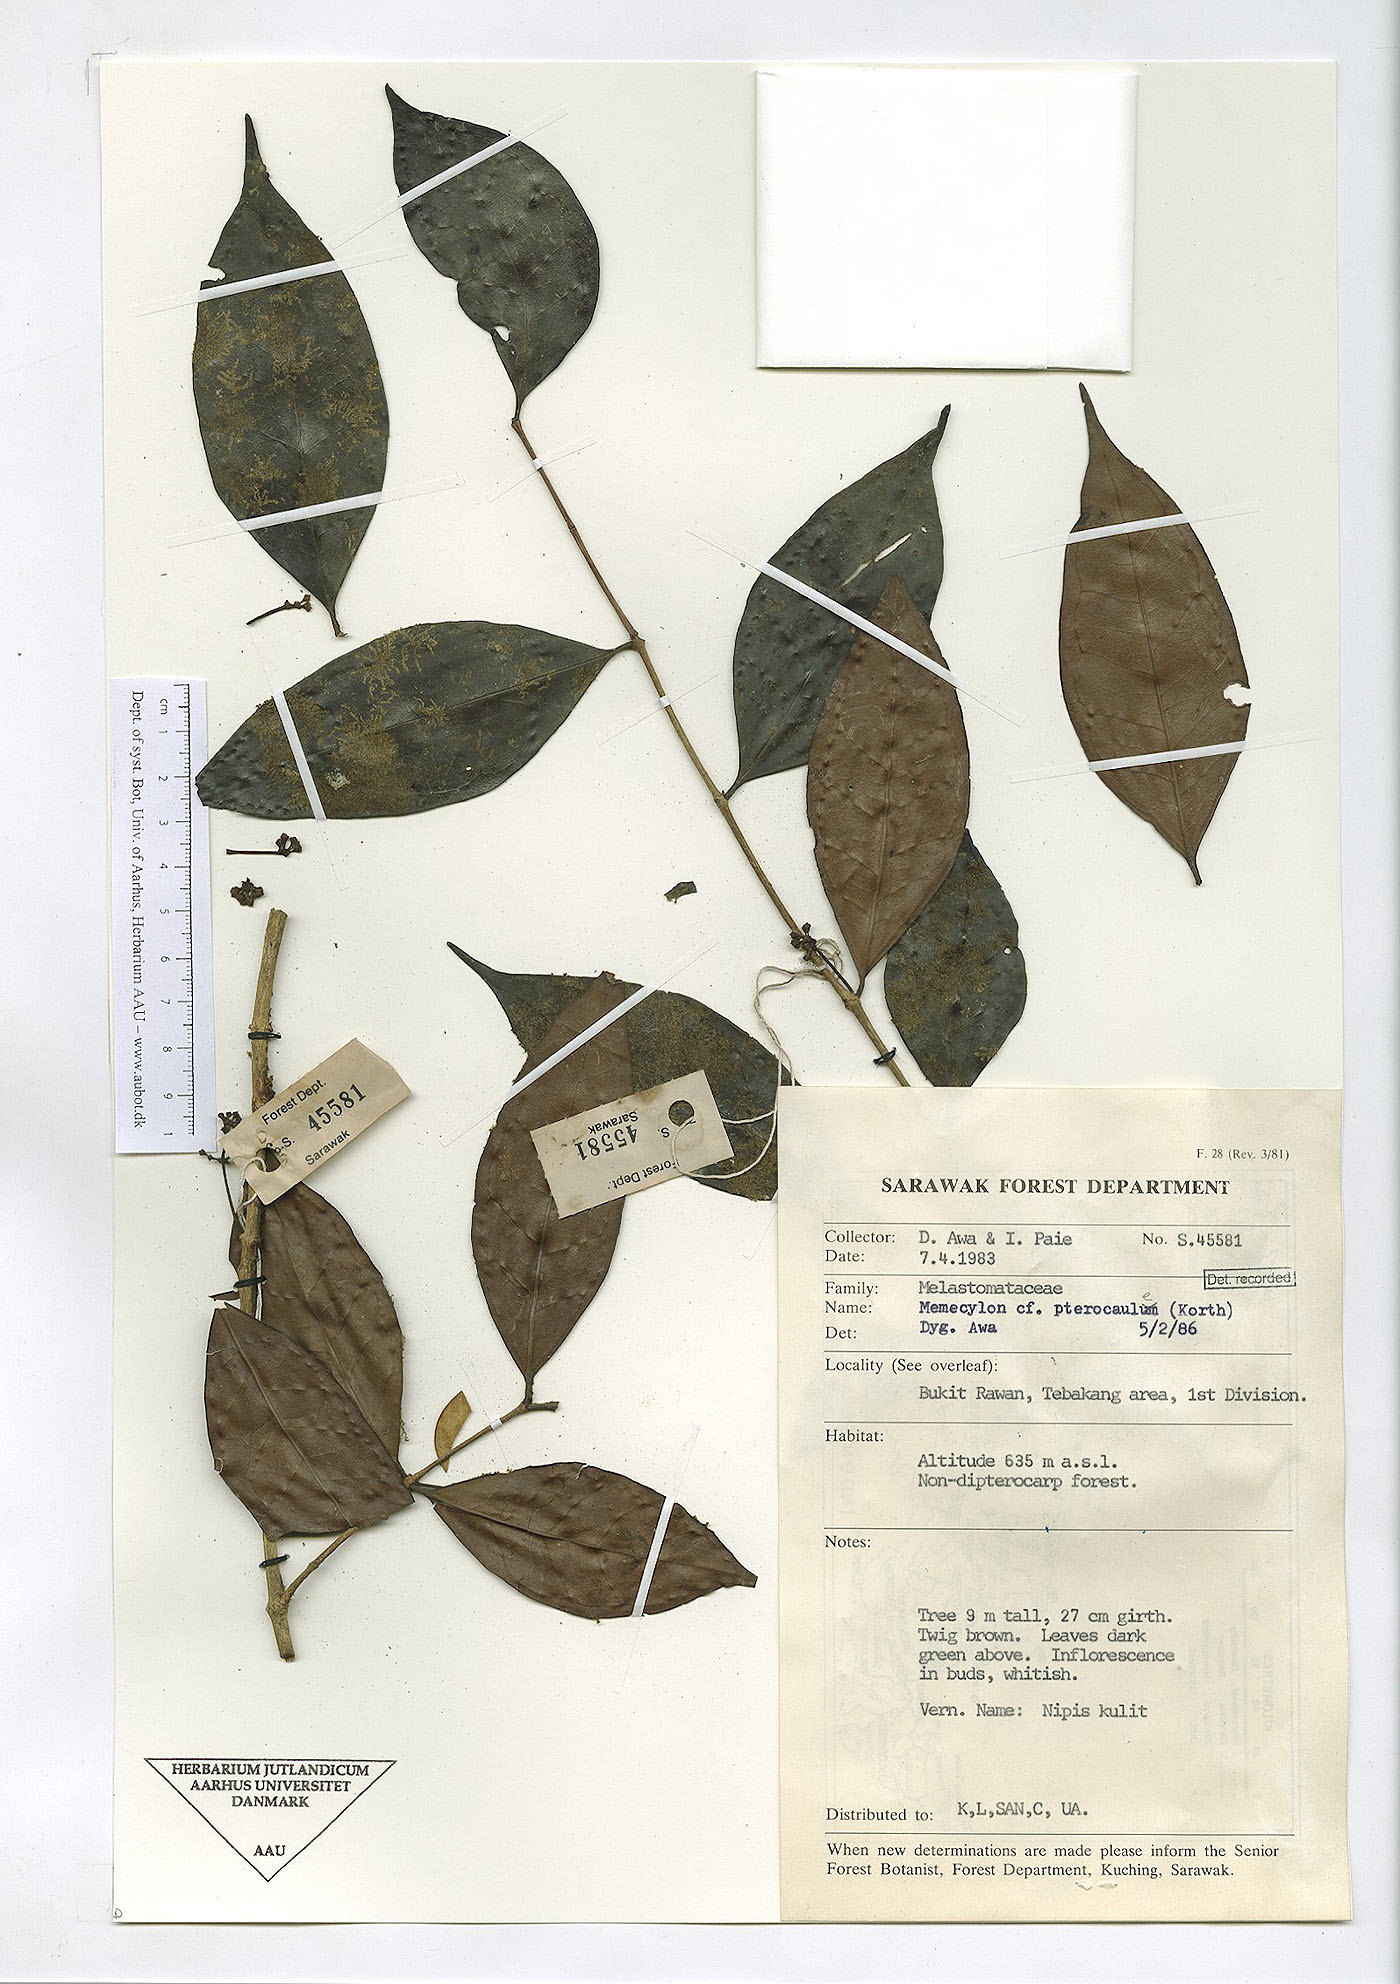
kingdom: Plantae
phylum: Tracheophyta
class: Magnoliopsida
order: Myrtales
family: Melastomataceae
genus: Memecylon
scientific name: Memecylon paniculatum
